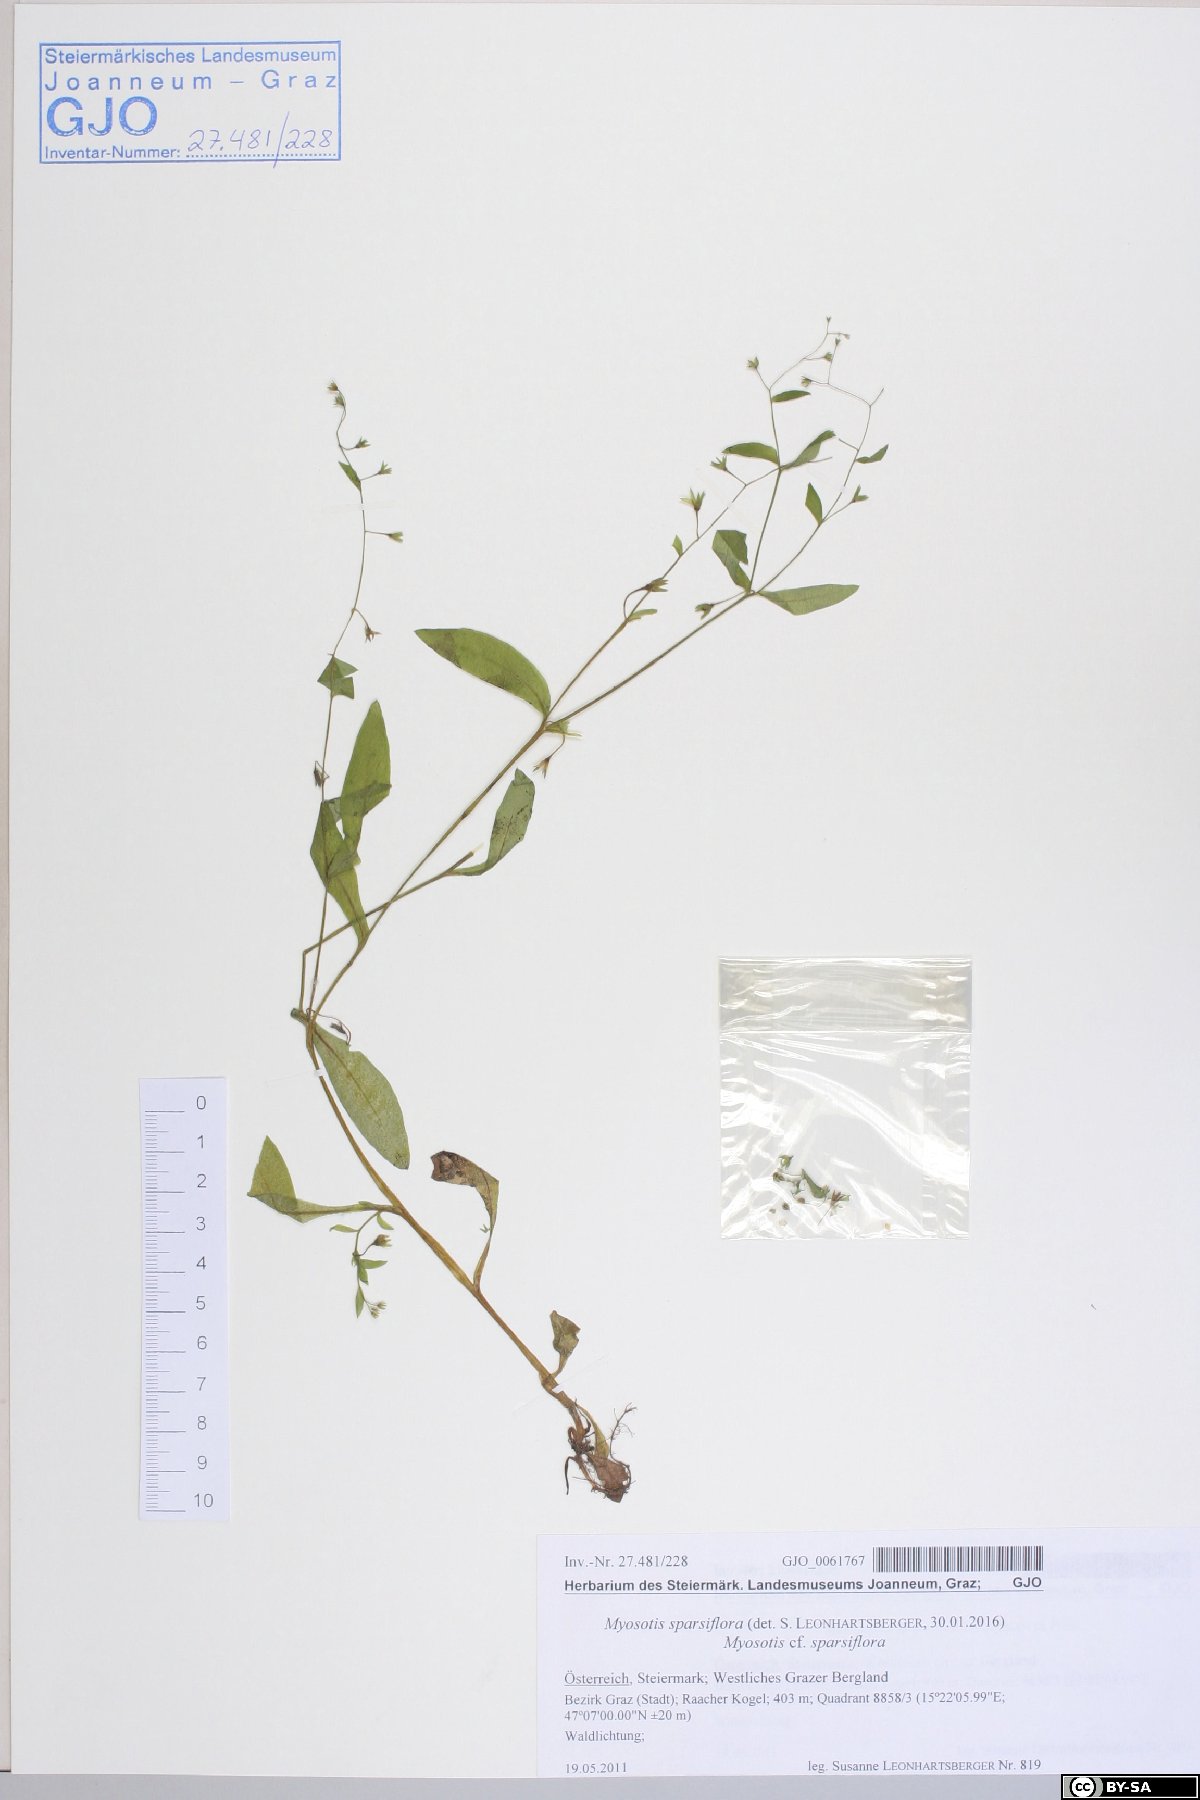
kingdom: Plantae
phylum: Tracheophyta
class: Magnoliopsida
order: Boraginales
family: Boraginaceae
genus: Myosotis
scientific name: Myosotis sparsiflora
